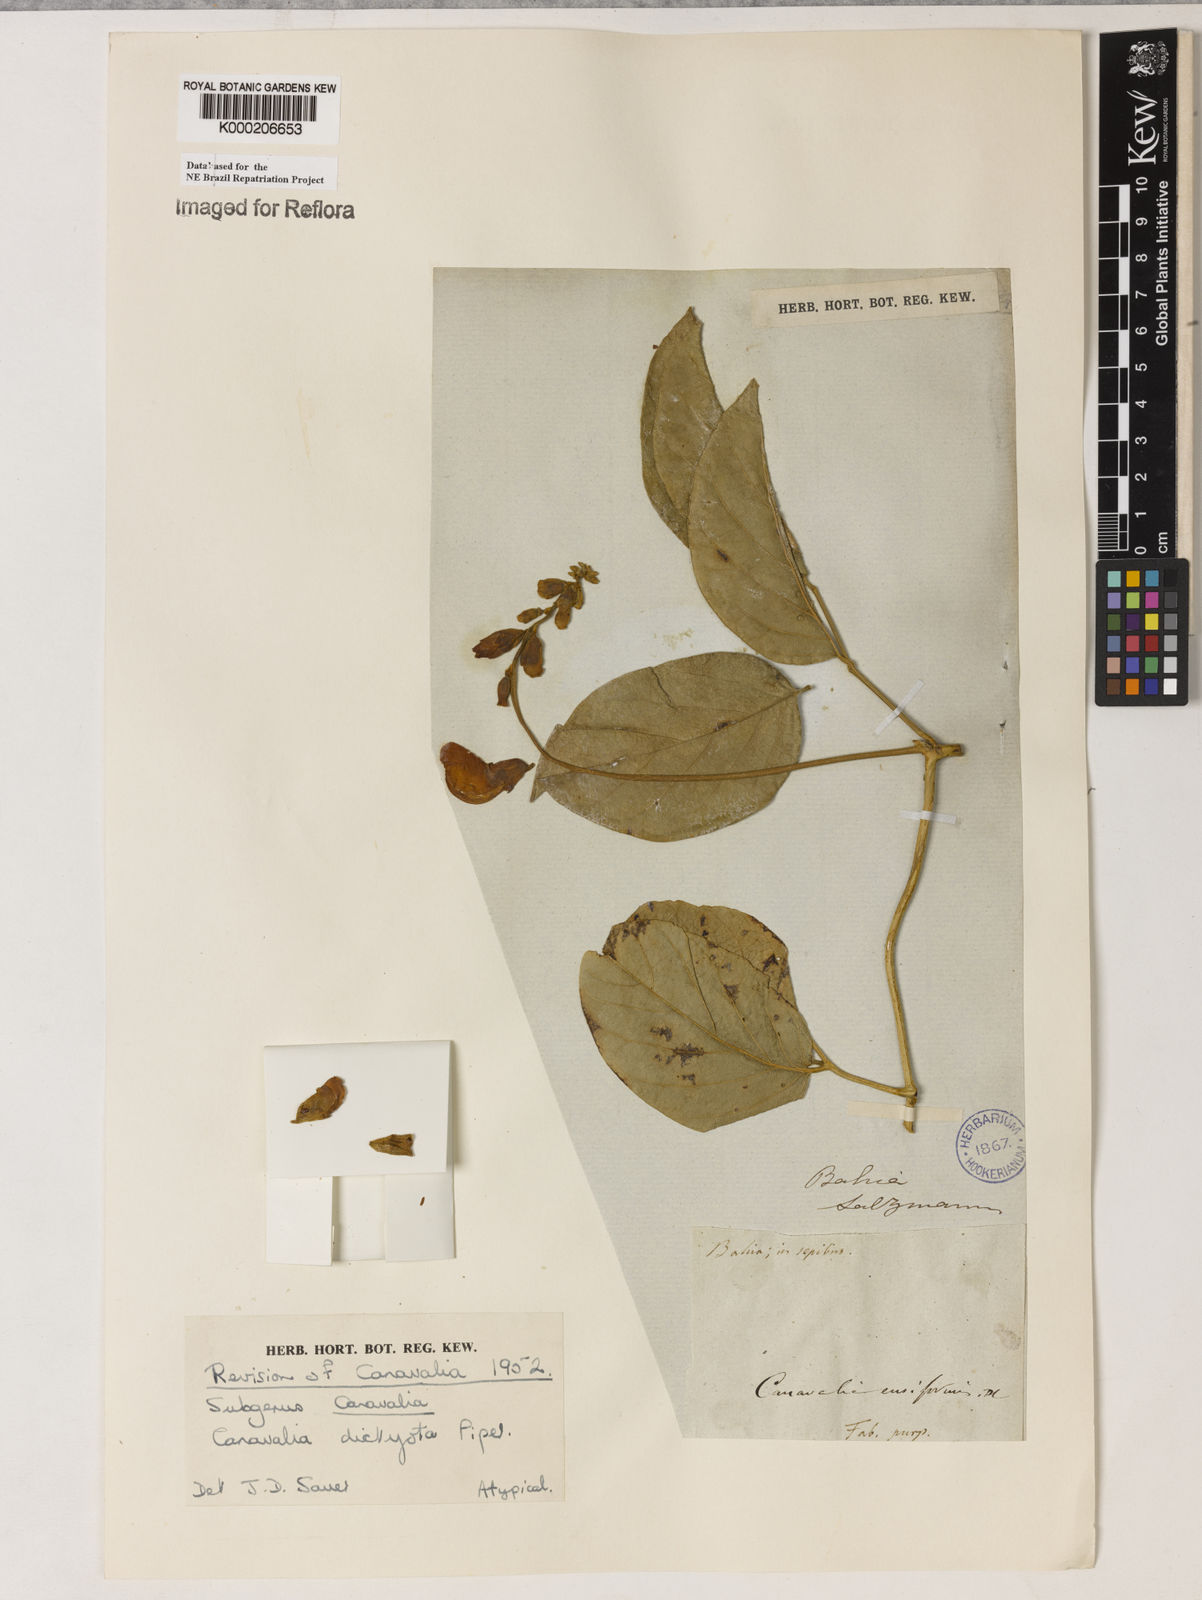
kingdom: Plantae
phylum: Tracheophyta
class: Magnoliopsida
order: Fabales
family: Fabaceae
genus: Canavalia
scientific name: Canavalia brasiliensis
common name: Barbicou-bean
